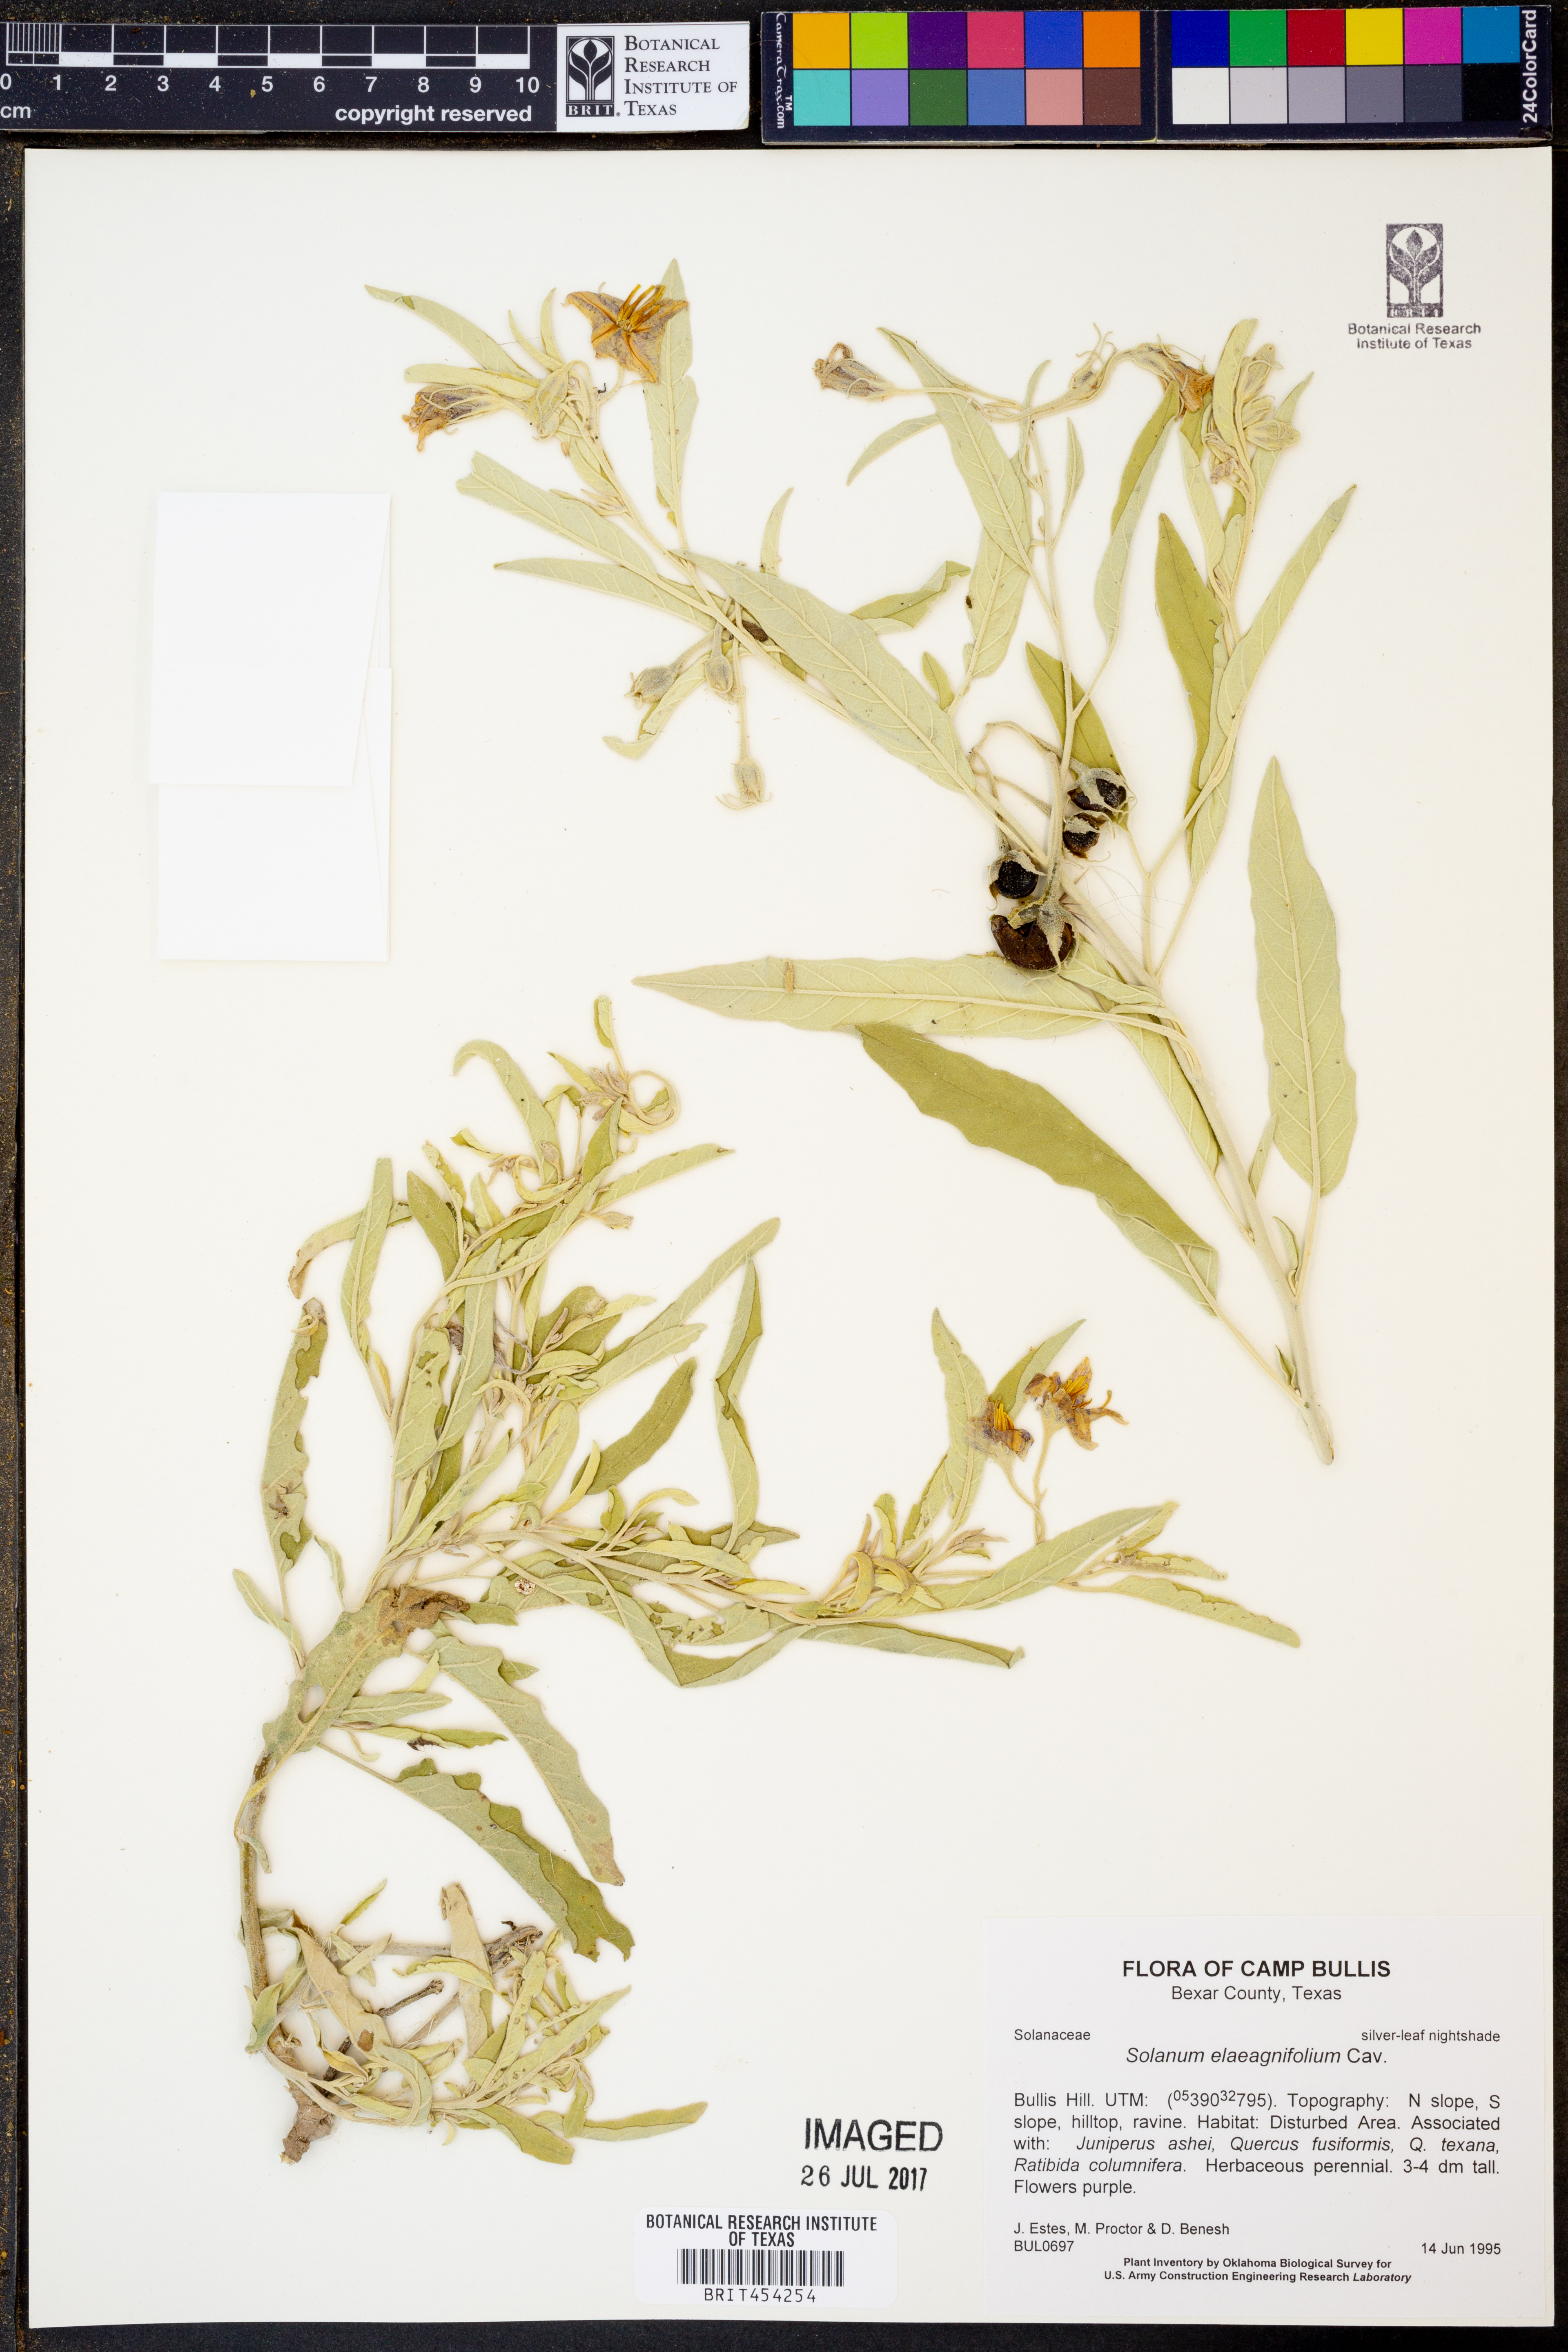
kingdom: Plantae
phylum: Tracheophyta
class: Magnoliopsida
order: Solanales
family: Solanaceae
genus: Solanum
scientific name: Solanum elaeagnifolium
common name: Silverleaf nightshade
